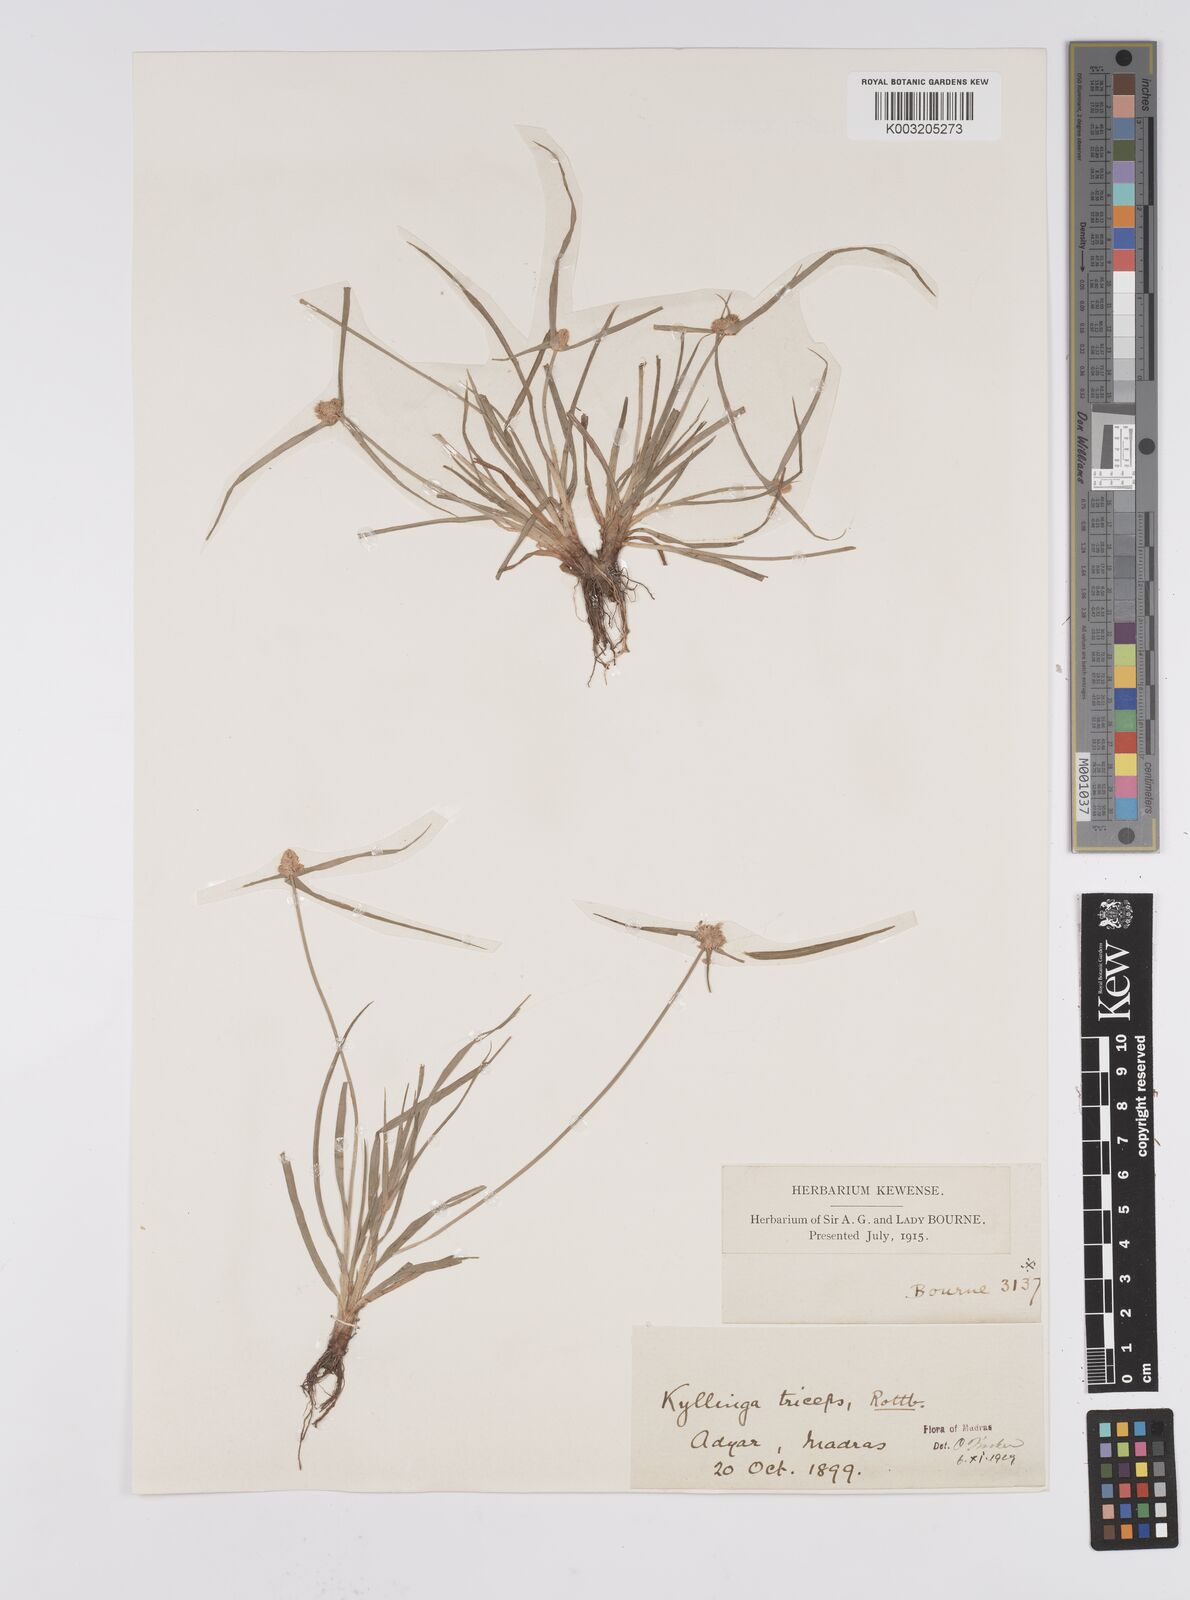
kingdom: Plantae
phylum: Tracheophyta
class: Liliopsida
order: Poales
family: Cyperaceae
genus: Cyperus
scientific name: Cyperus
